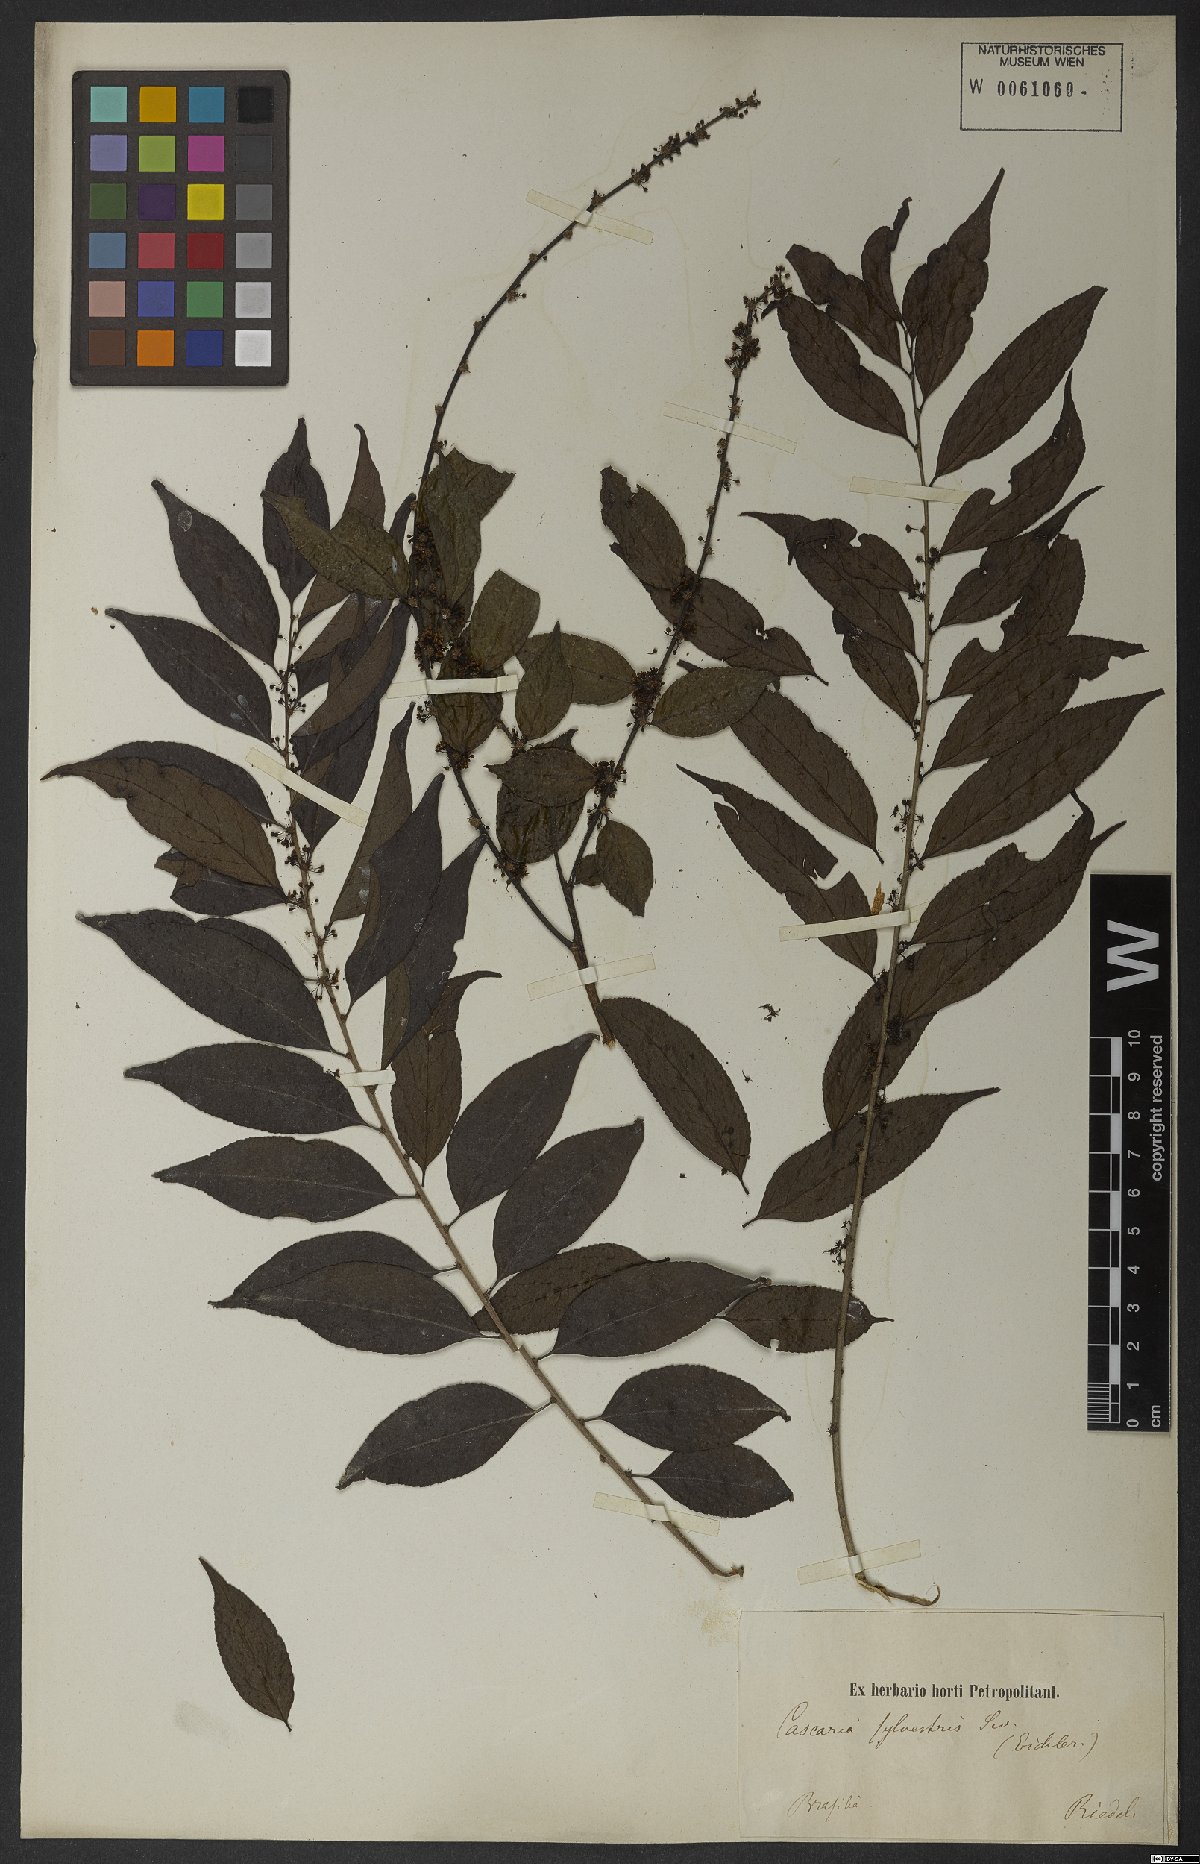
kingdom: Plantae
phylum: Tracheophyta
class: Magnoliopsida
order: Malpighiales
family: Salicaceae
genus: Casearia
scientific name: Casearia sylvestris
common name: Wild sage
